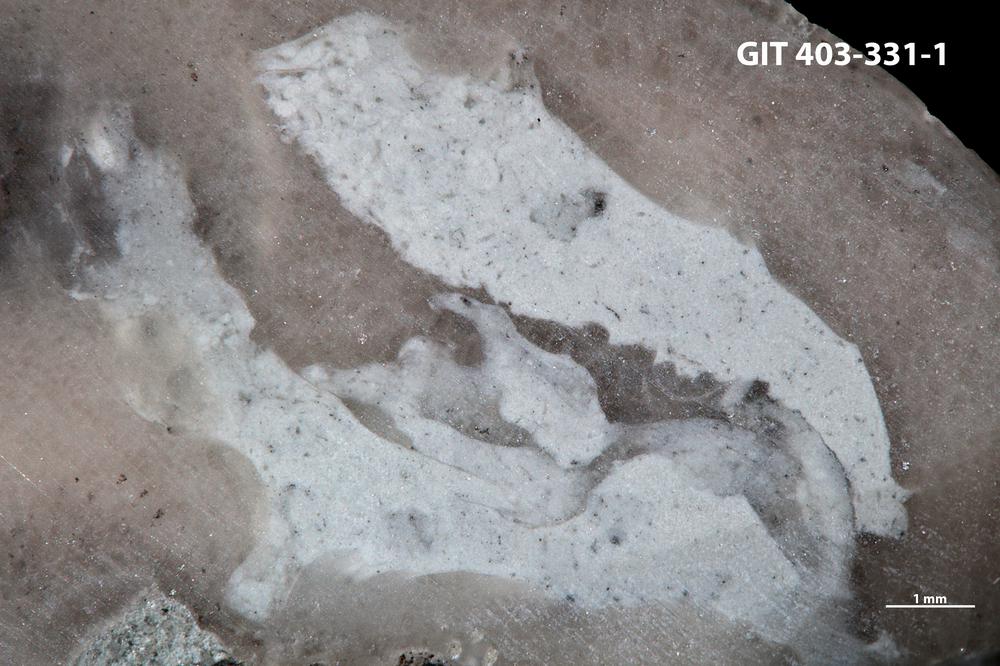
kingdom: Animalia
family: Coprulidae
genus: Coprulus
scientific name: Coprulus
